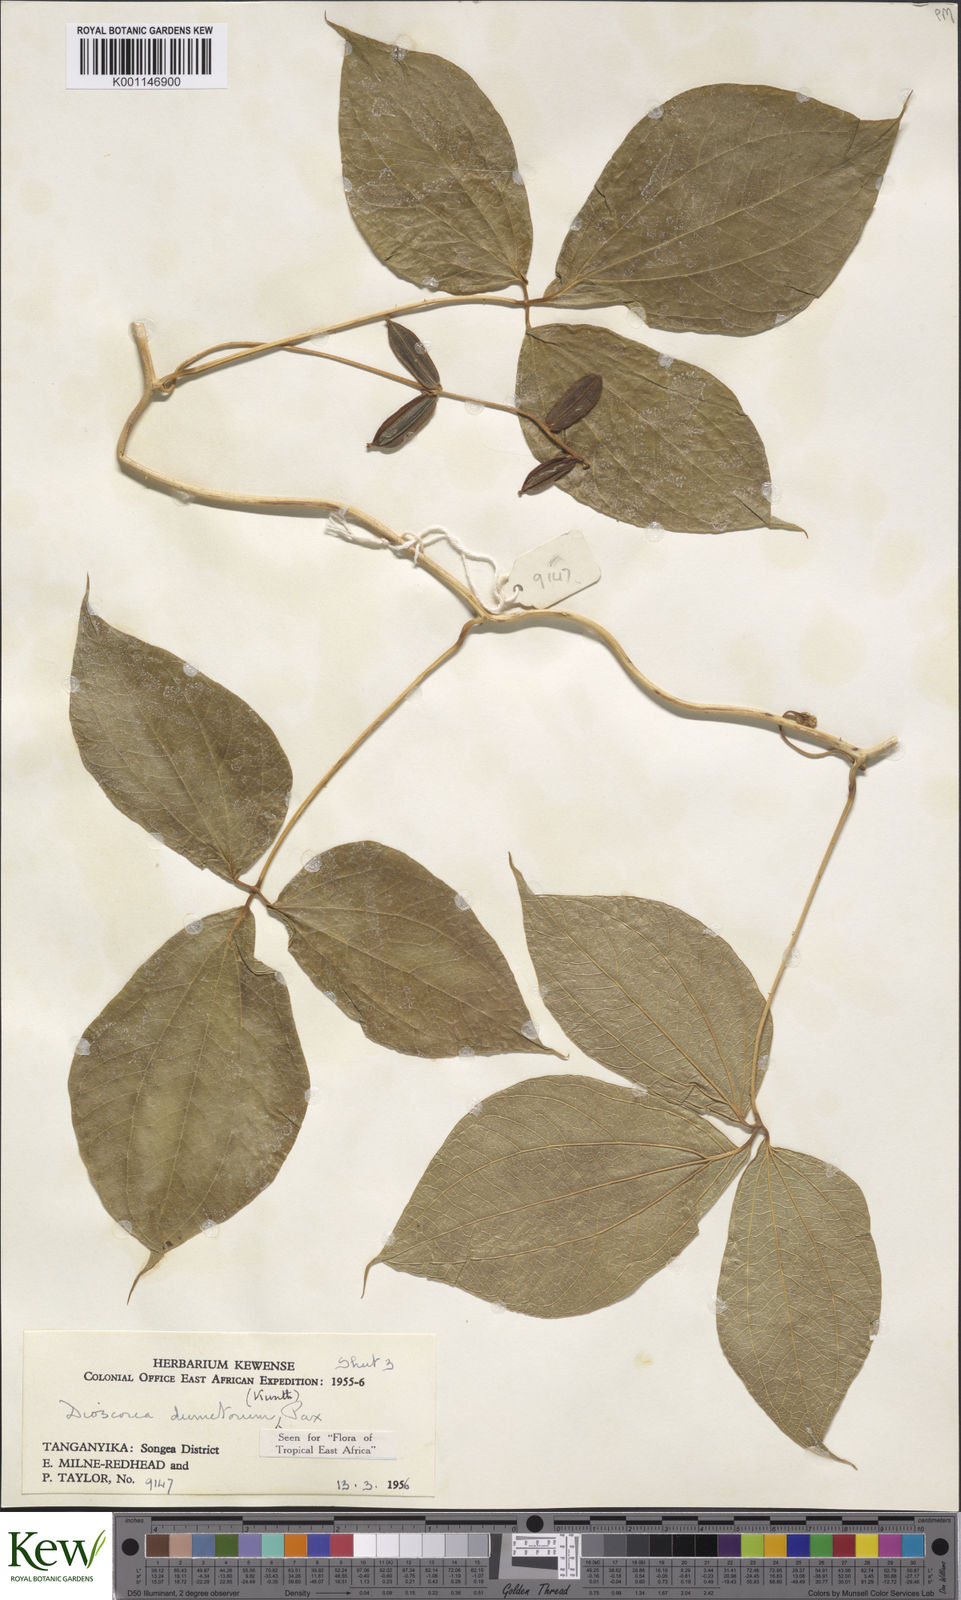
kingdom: Plantae
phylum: Tracheophyta
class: Liliopsida
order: Dioscoreales
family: Dioscoreaceae
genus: Dioscorea
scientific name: Dioscorea dumetorum
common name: African bitter yam
